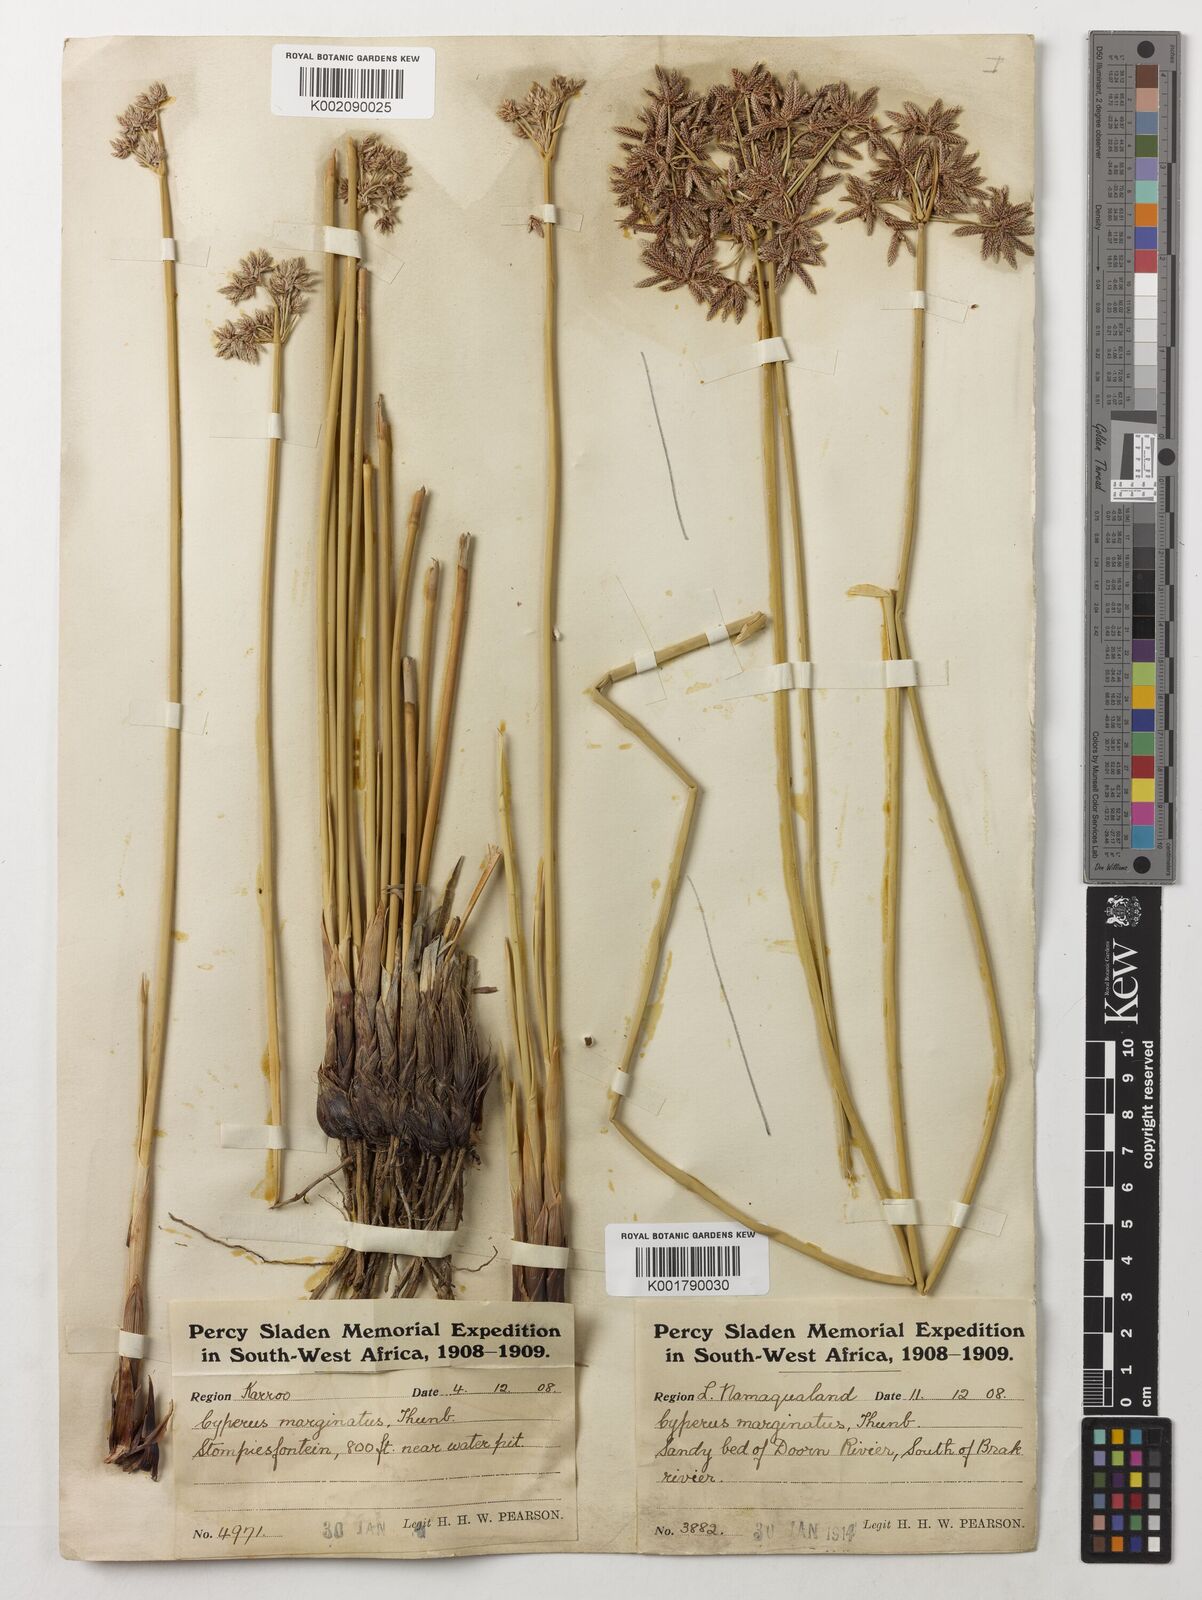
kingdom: Plantae
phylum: Tracheophyta
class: Liliopsida
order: Poales
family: Cyperaceae
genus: Cyperus
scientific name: Cyperus marginatus
